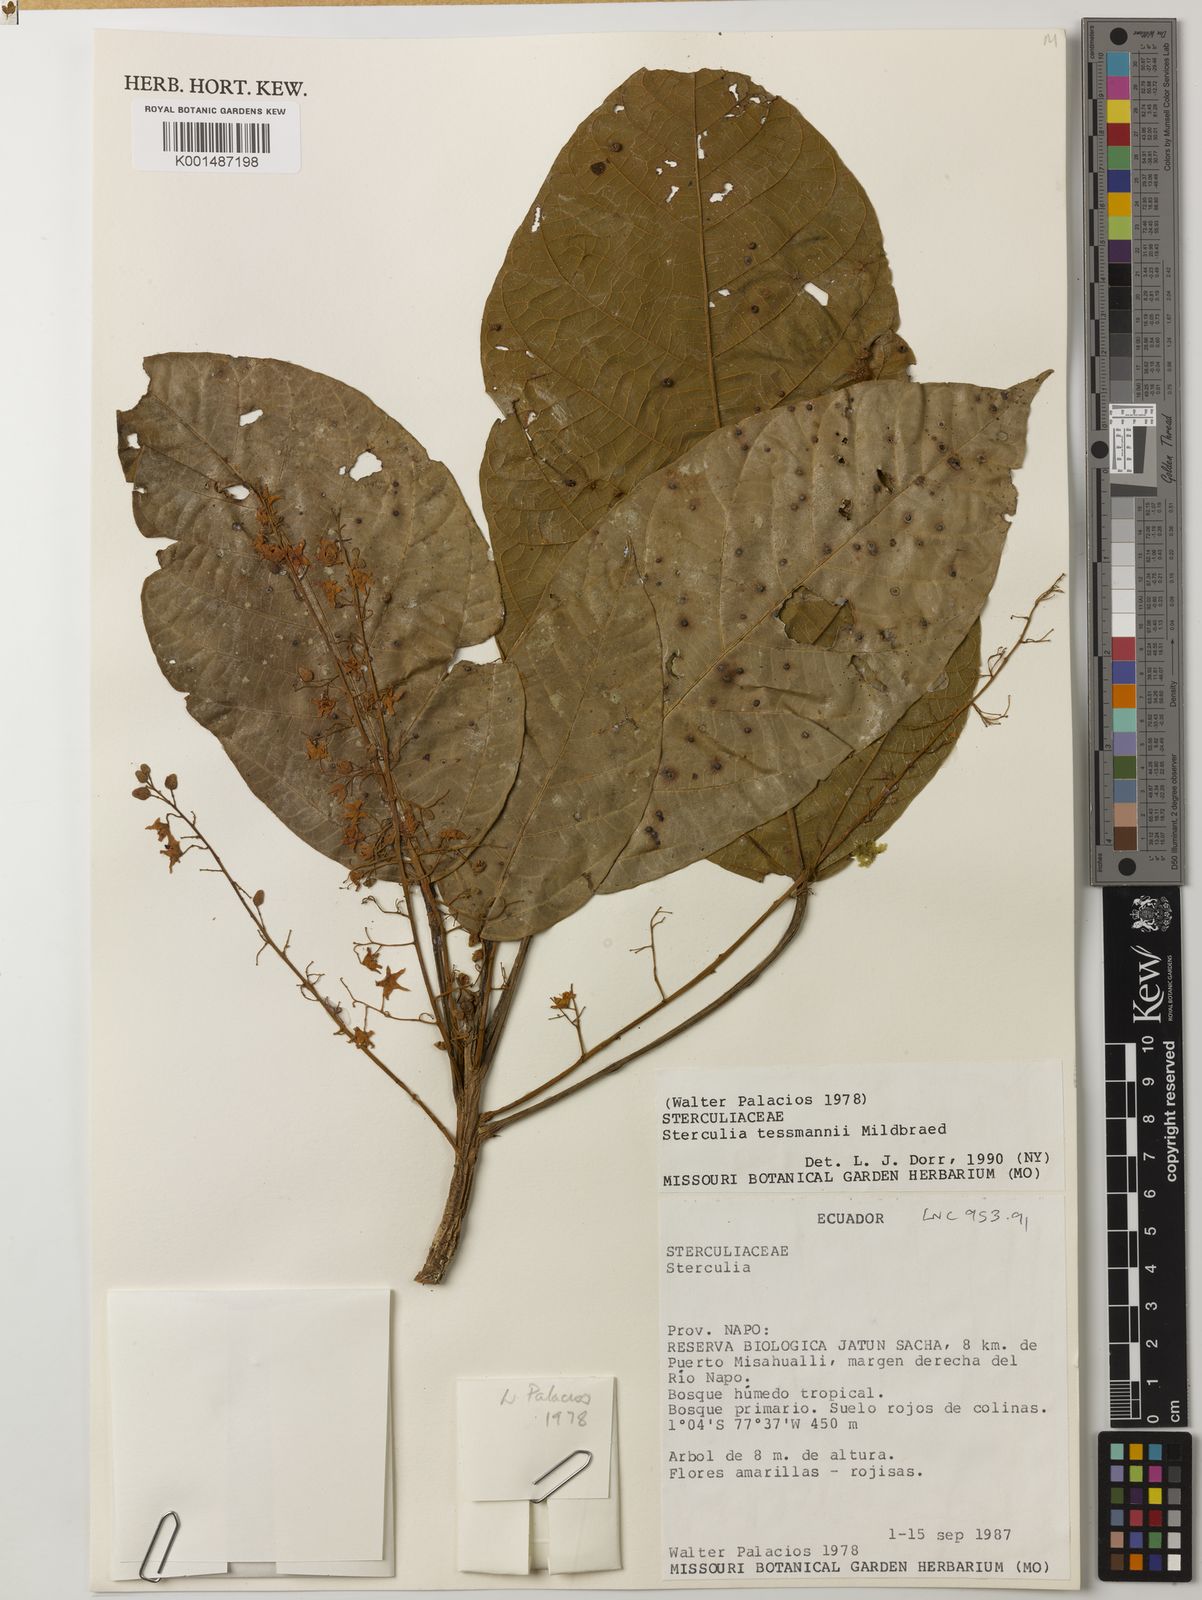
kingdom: Plantae
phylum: Tracheophyta
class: Magnoliopsida
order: Malvales
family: Malvaceae
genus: Sterculia
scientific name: Sterculia tessmannii
